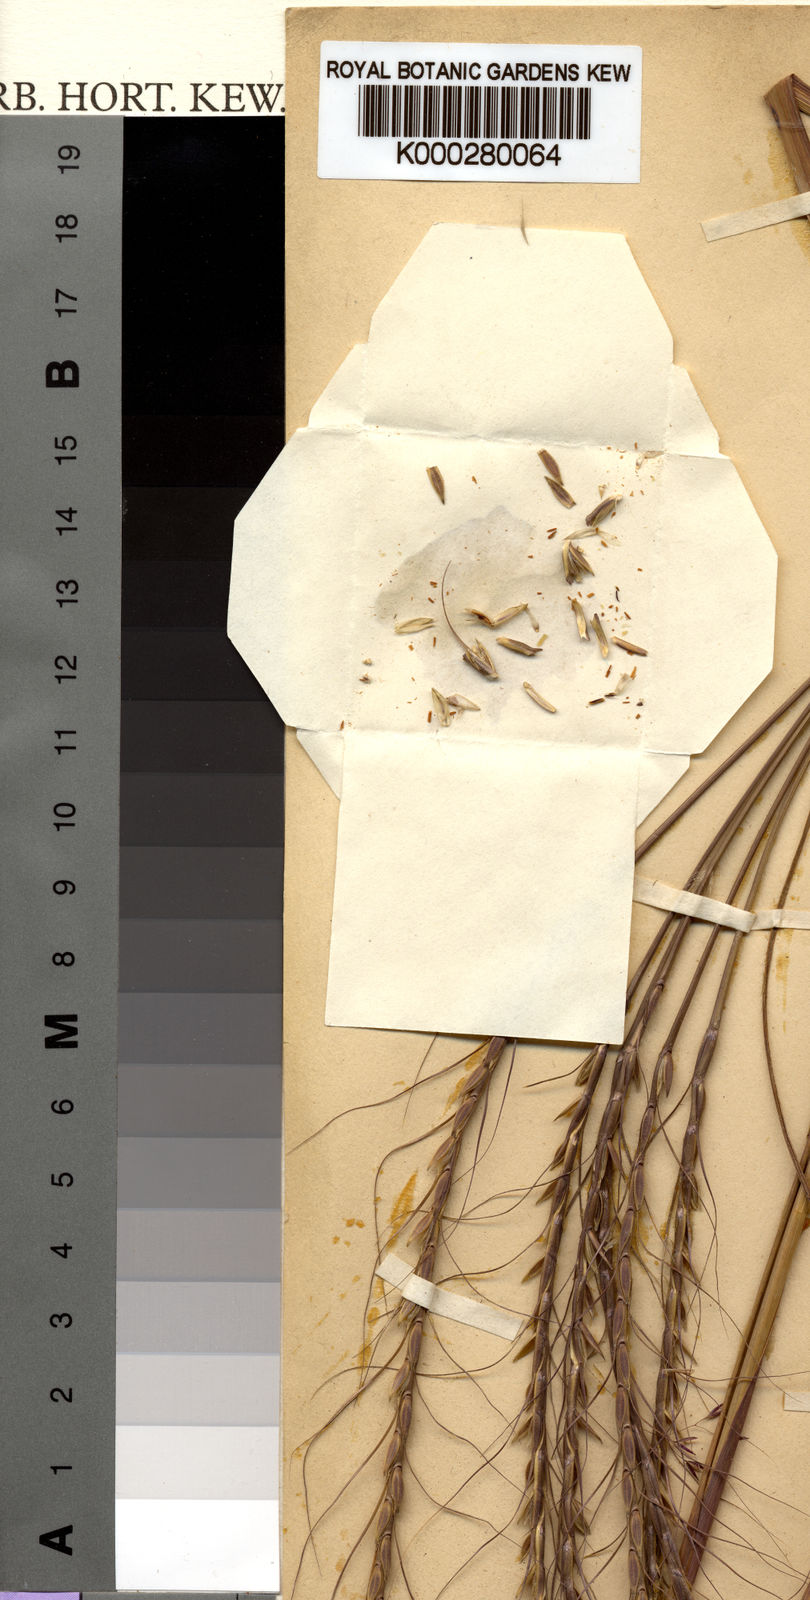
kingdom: Plantae
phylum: Tracheophyta
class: Liliopsida
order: Poales
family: Poaceae
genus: Urelytrum
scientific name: Urelytrum digitatum
